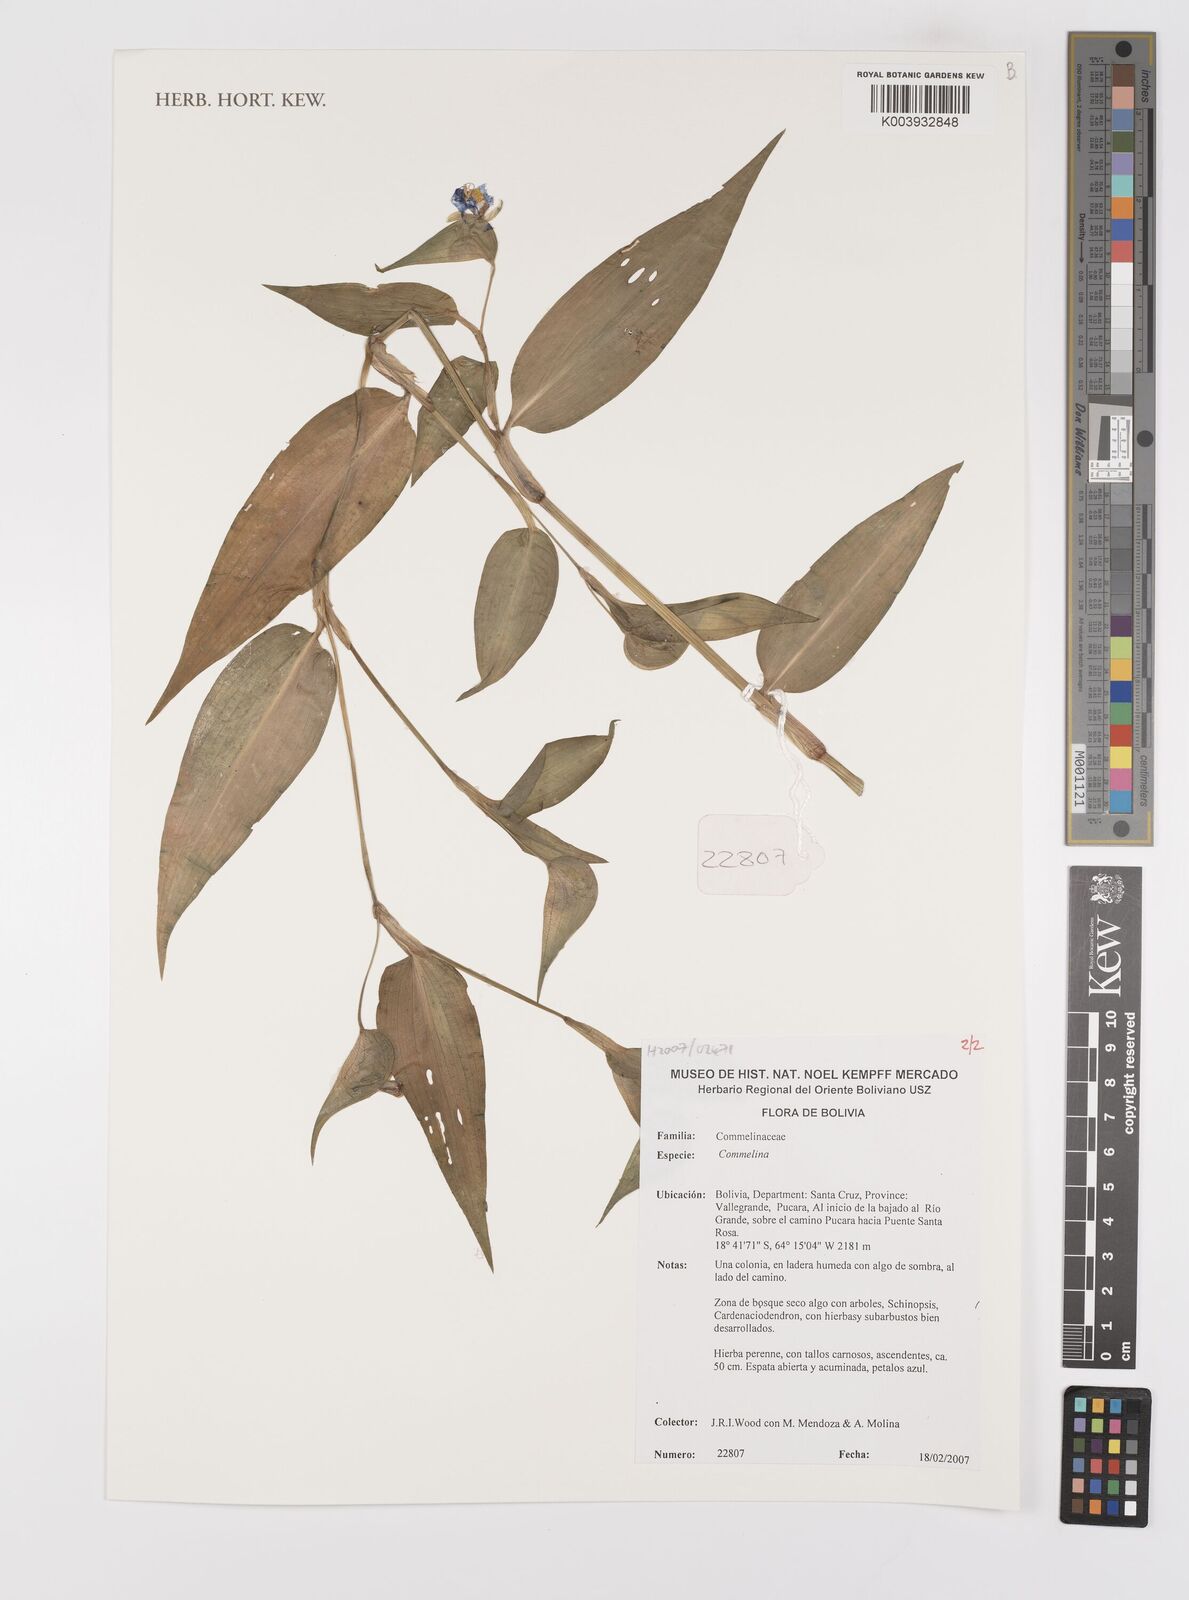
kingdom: Plantae
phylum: Tracheophyta
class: Liliopsida
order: Commelinales
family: Commelinaceae
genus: Commelina
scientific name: Commelina
